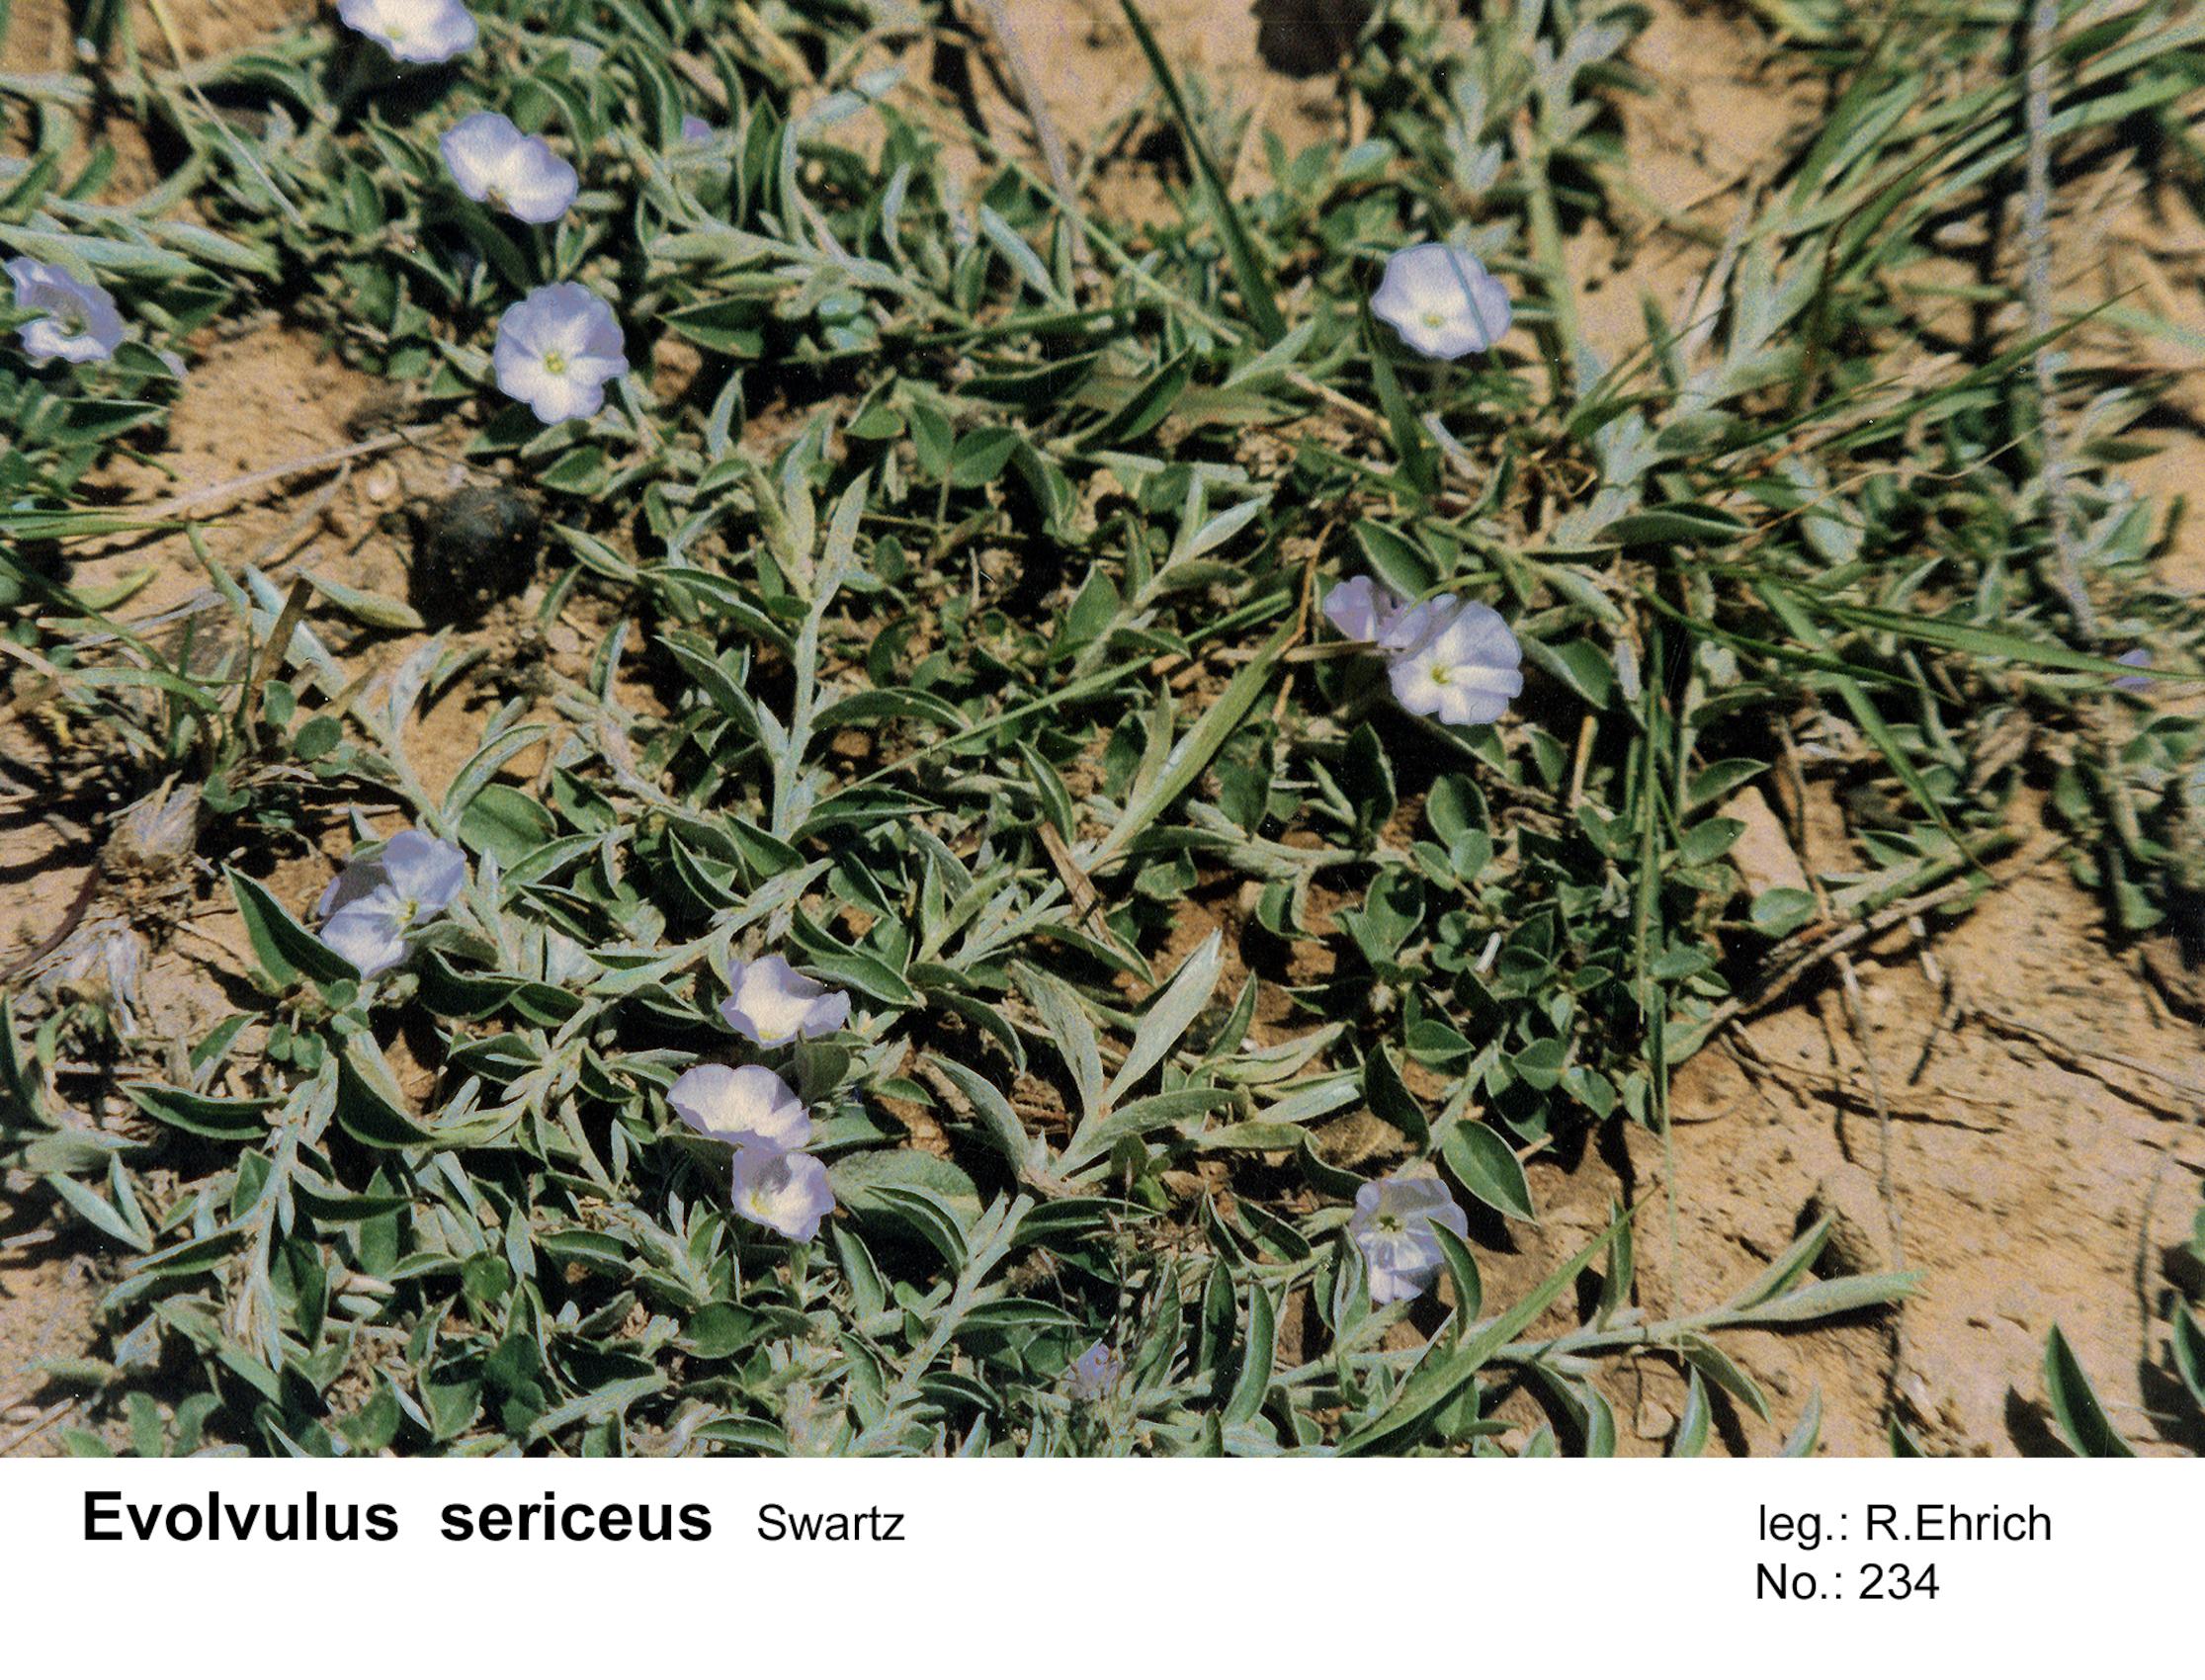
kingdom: Plantae
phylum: Tracheophyta
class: Magnoliopsida
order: Solanales
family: Convolvulaceae
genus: Evolvulus
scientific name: Evolvulus sericeus
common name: Blue dots
